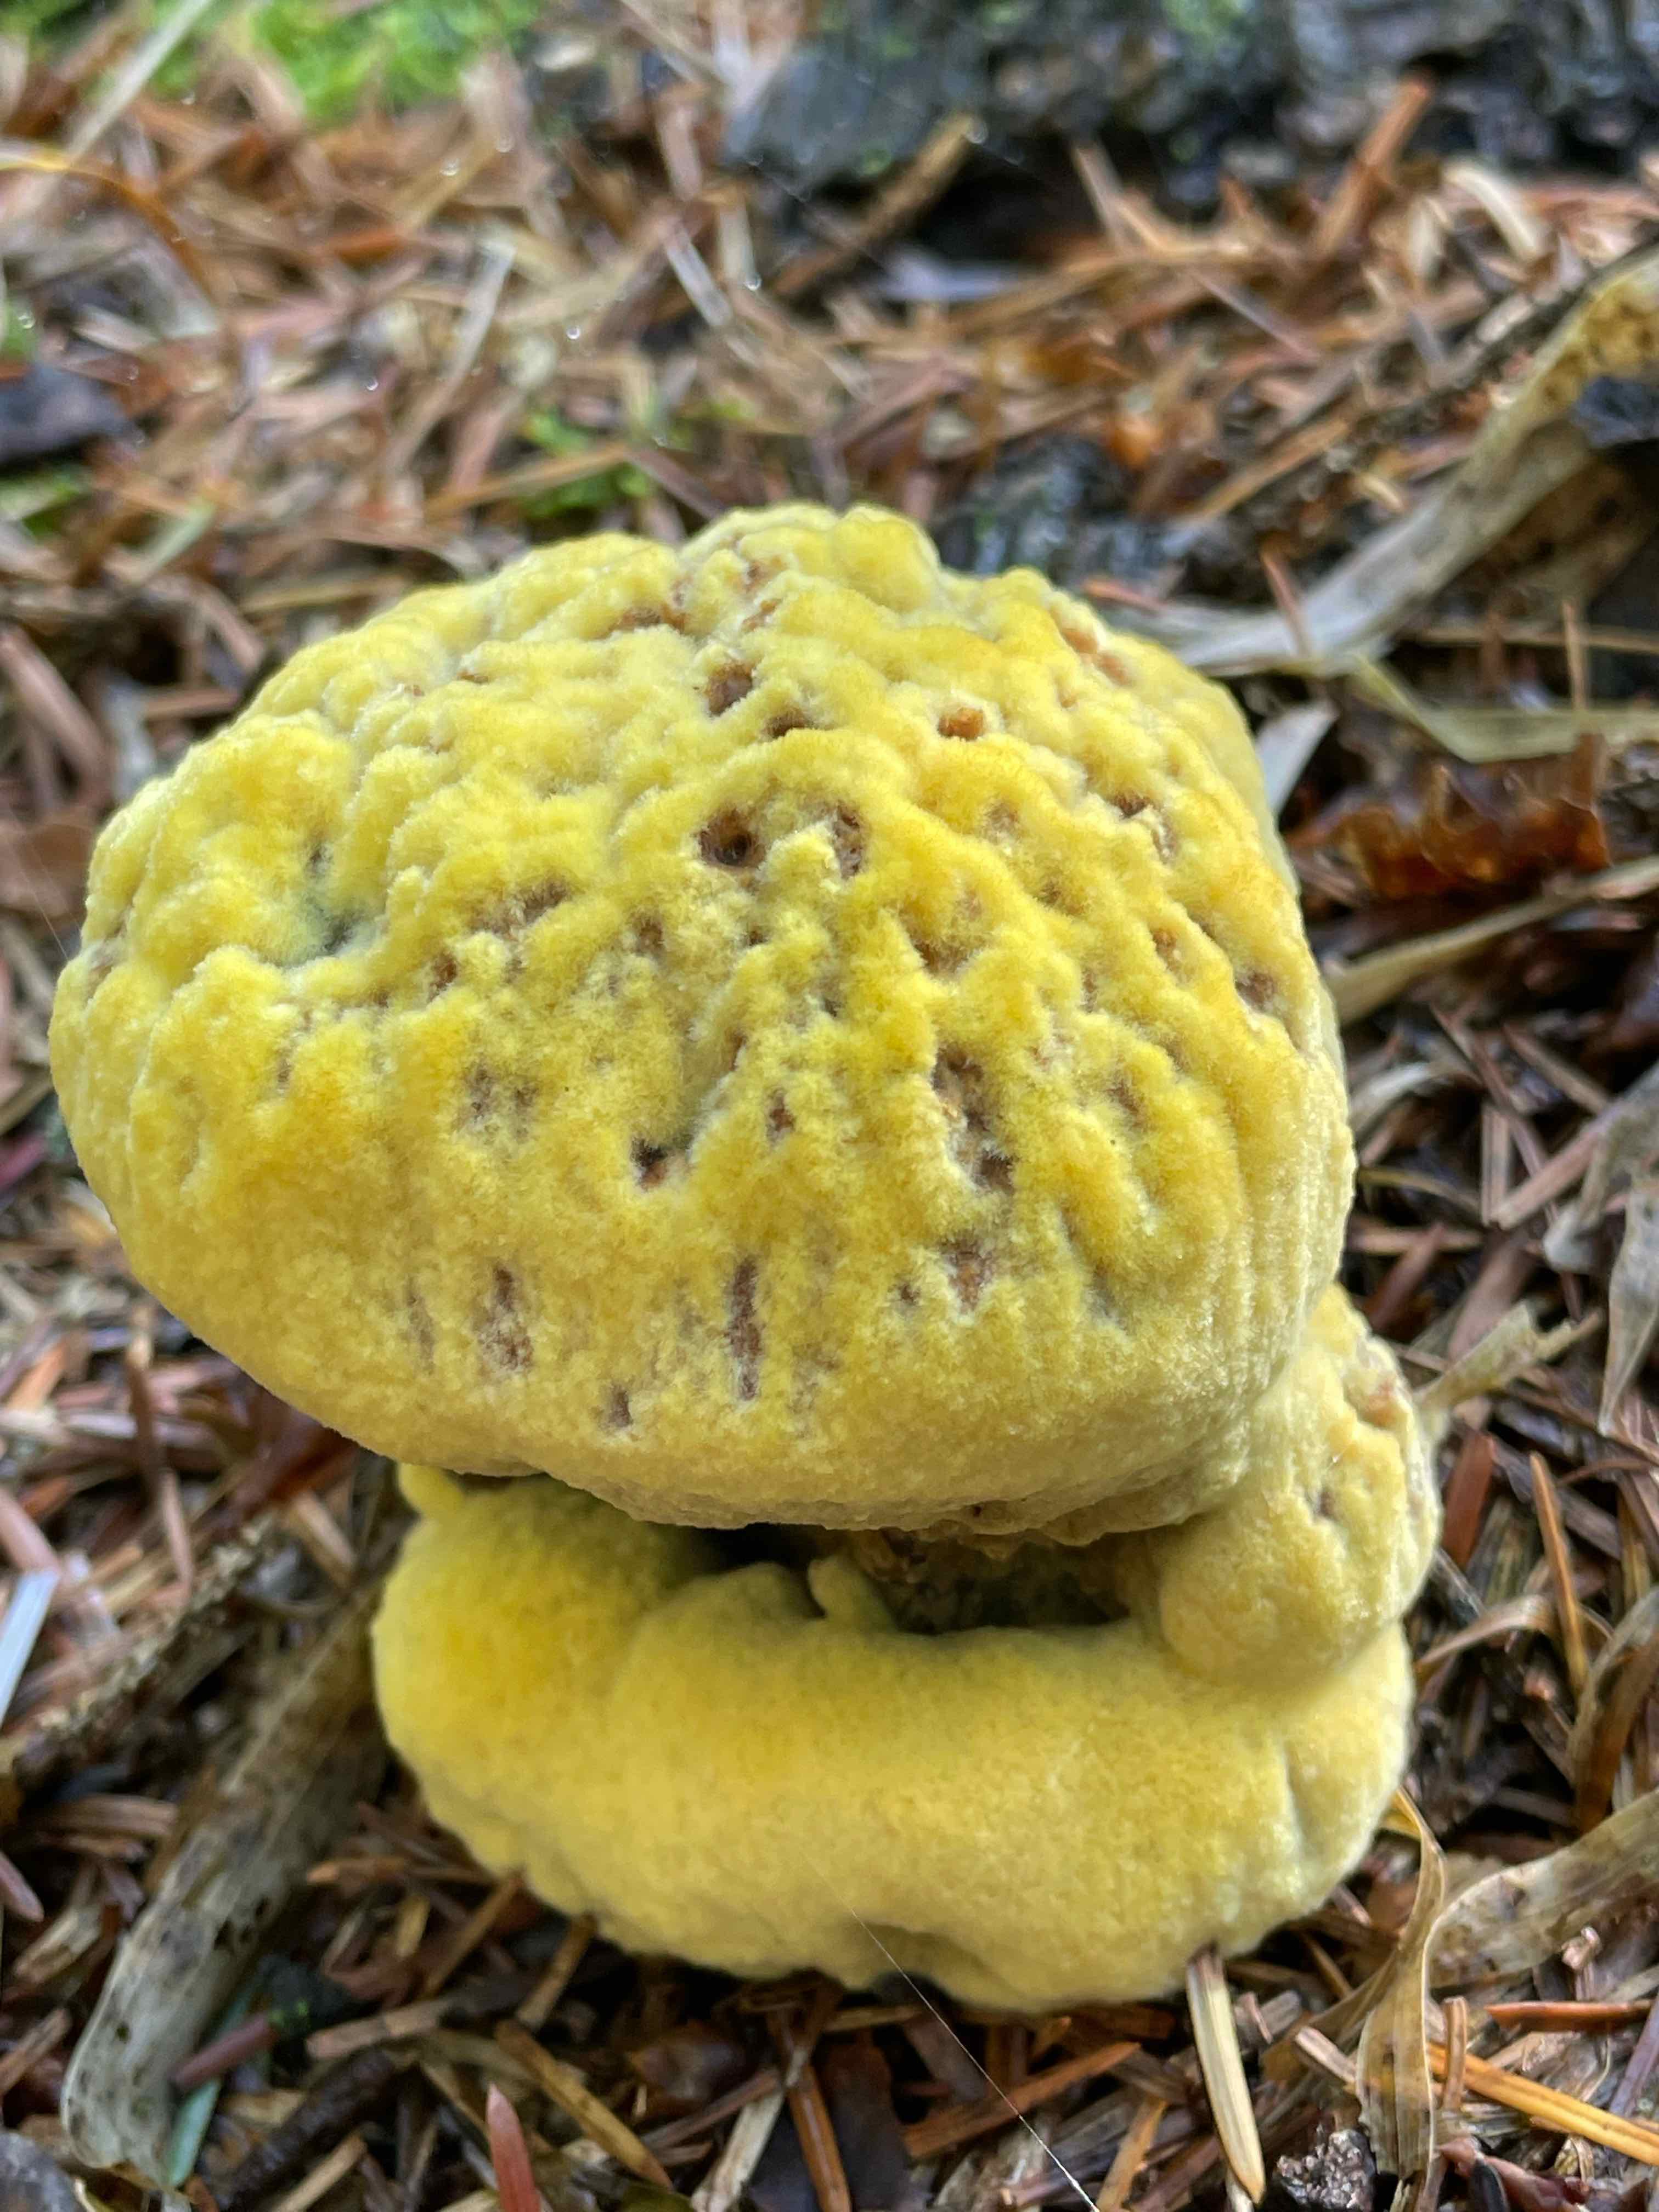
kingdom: Fungi
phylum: Basidiomycota
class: Agaricomycetes
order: Polyporales
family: Laetiporaceae
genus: Phaeolus
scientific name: Phaeolus schweinitzii
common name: brunporesvamp
